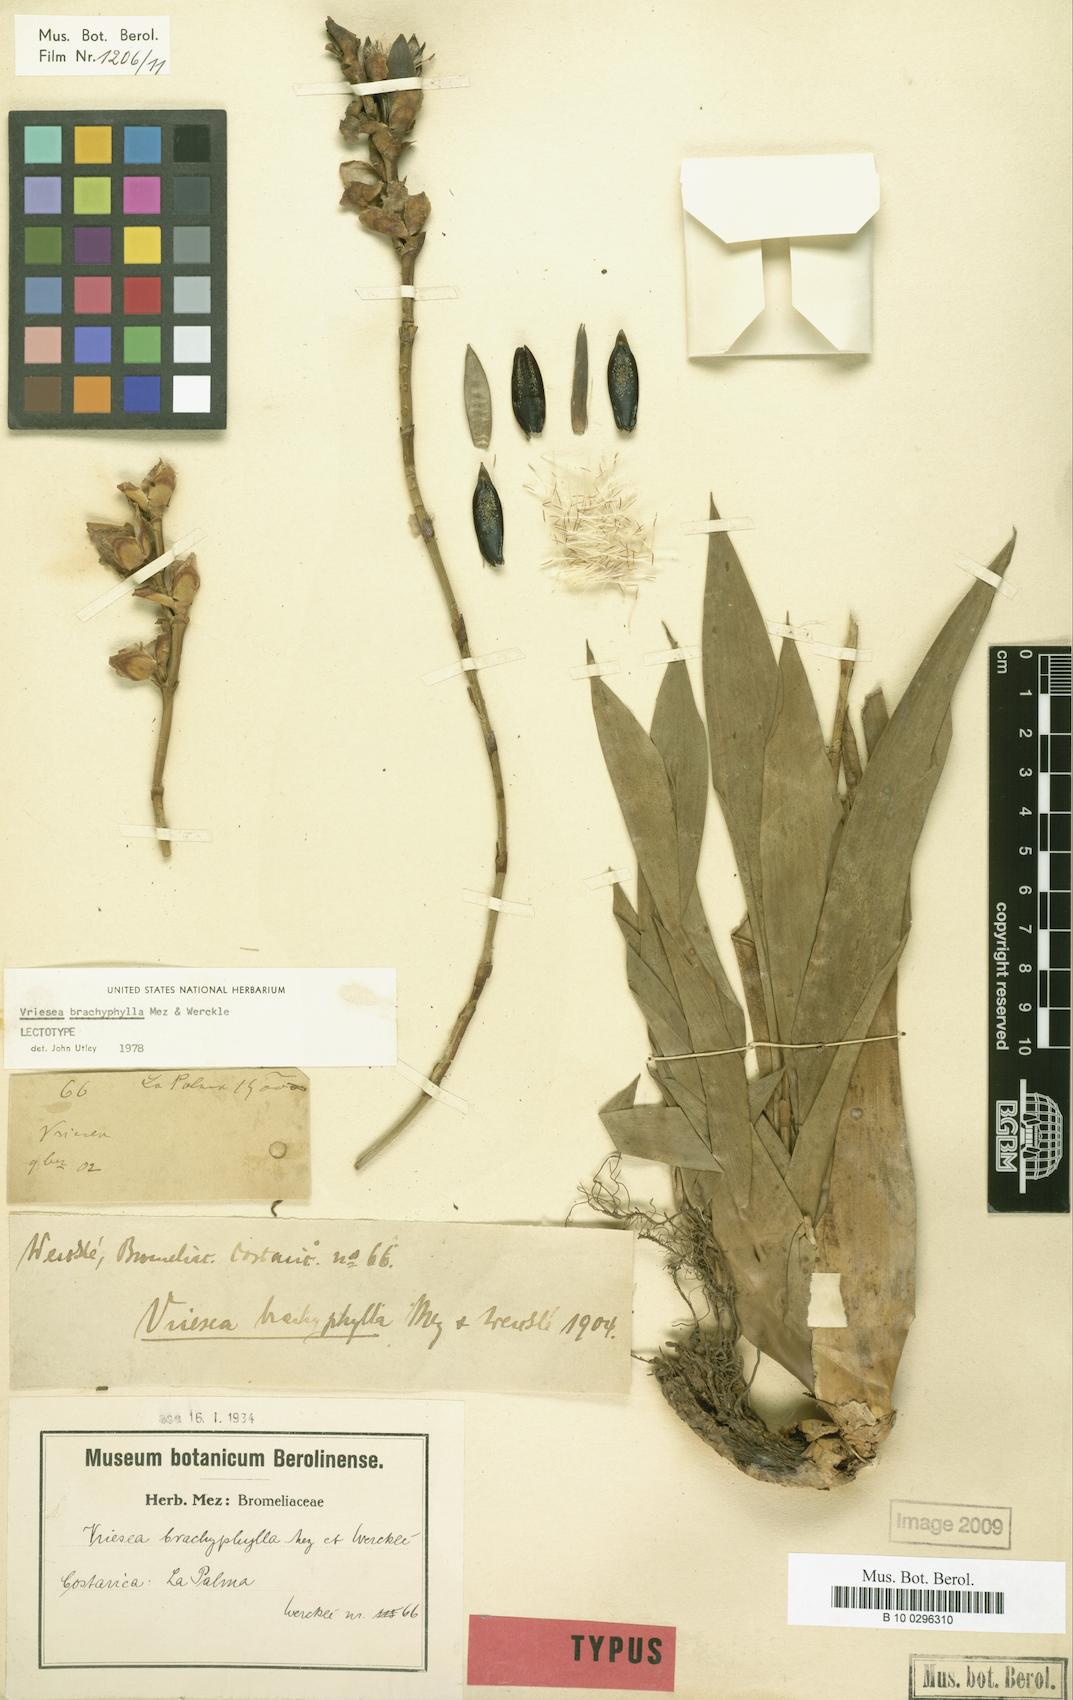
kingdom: Plantae
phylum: Tracheophyta
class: Liliopsida
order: Poales
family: Bromeliaceae
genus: Werauhia
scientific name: Werauhia viridiflora
